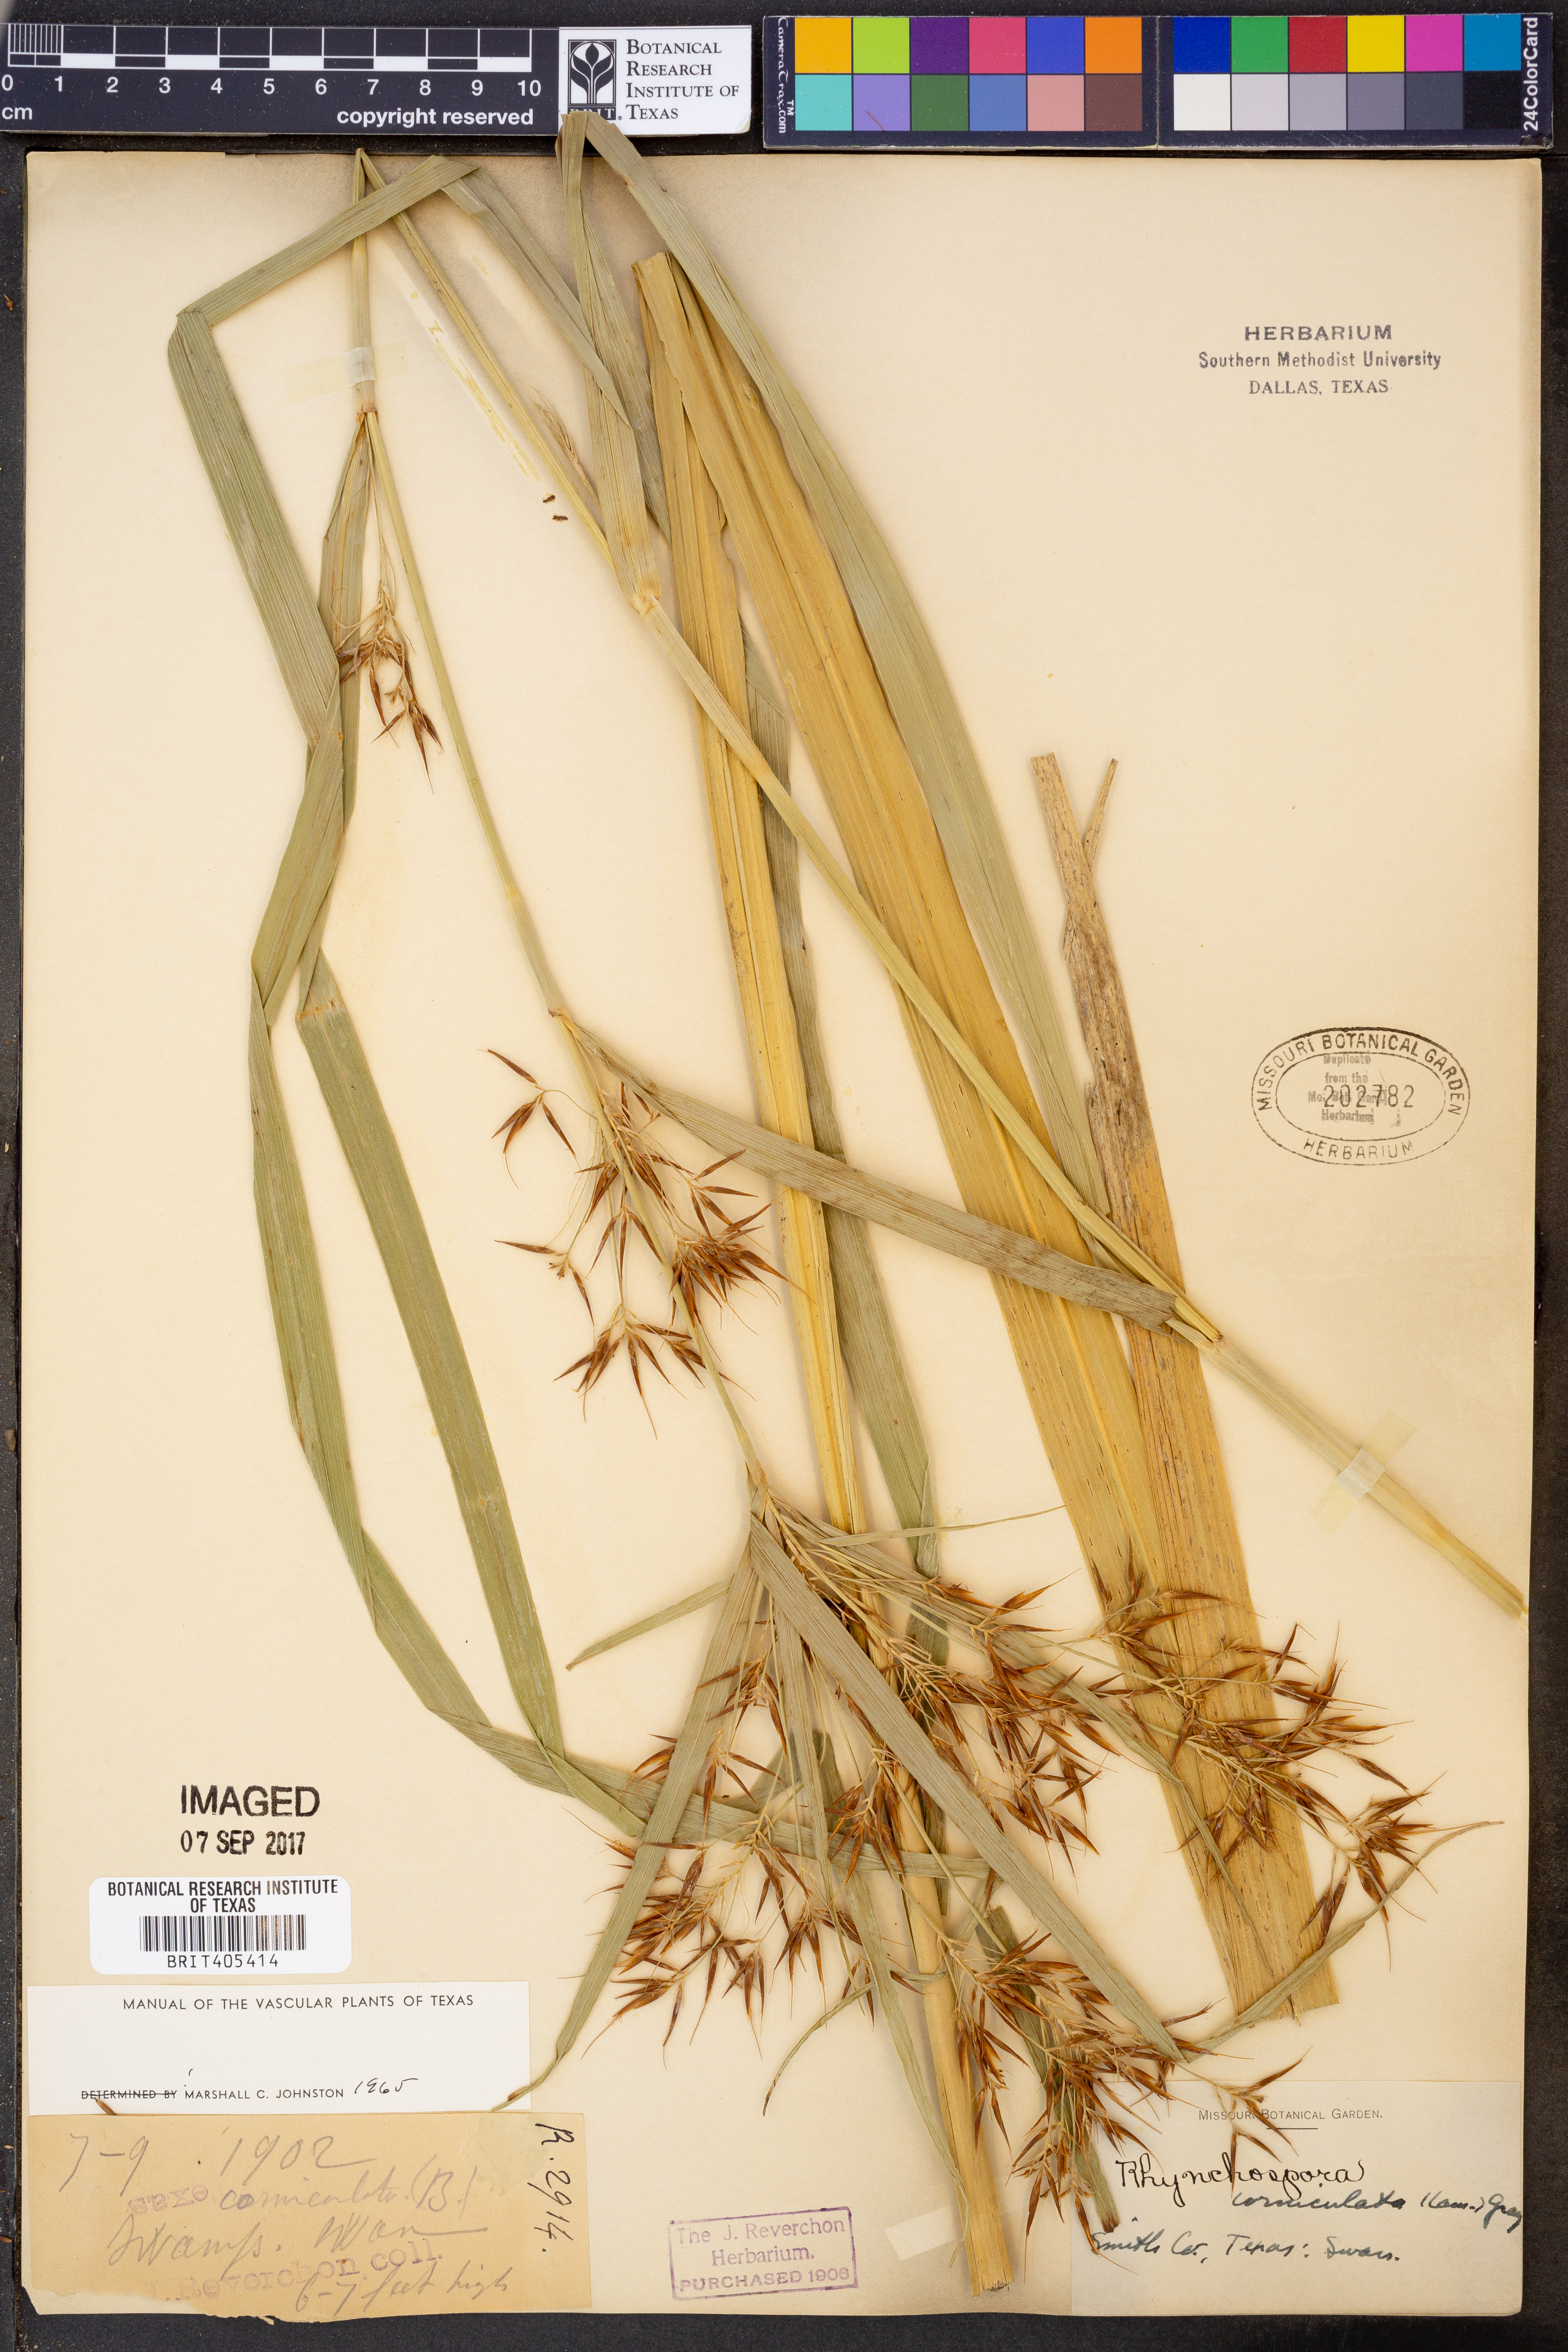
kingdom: Plantae
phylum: Tracheophyta
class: Liliopsida
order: Poales
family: Cyperaceae
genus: Rhynchospora
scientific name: Rhynchospora corniculata
